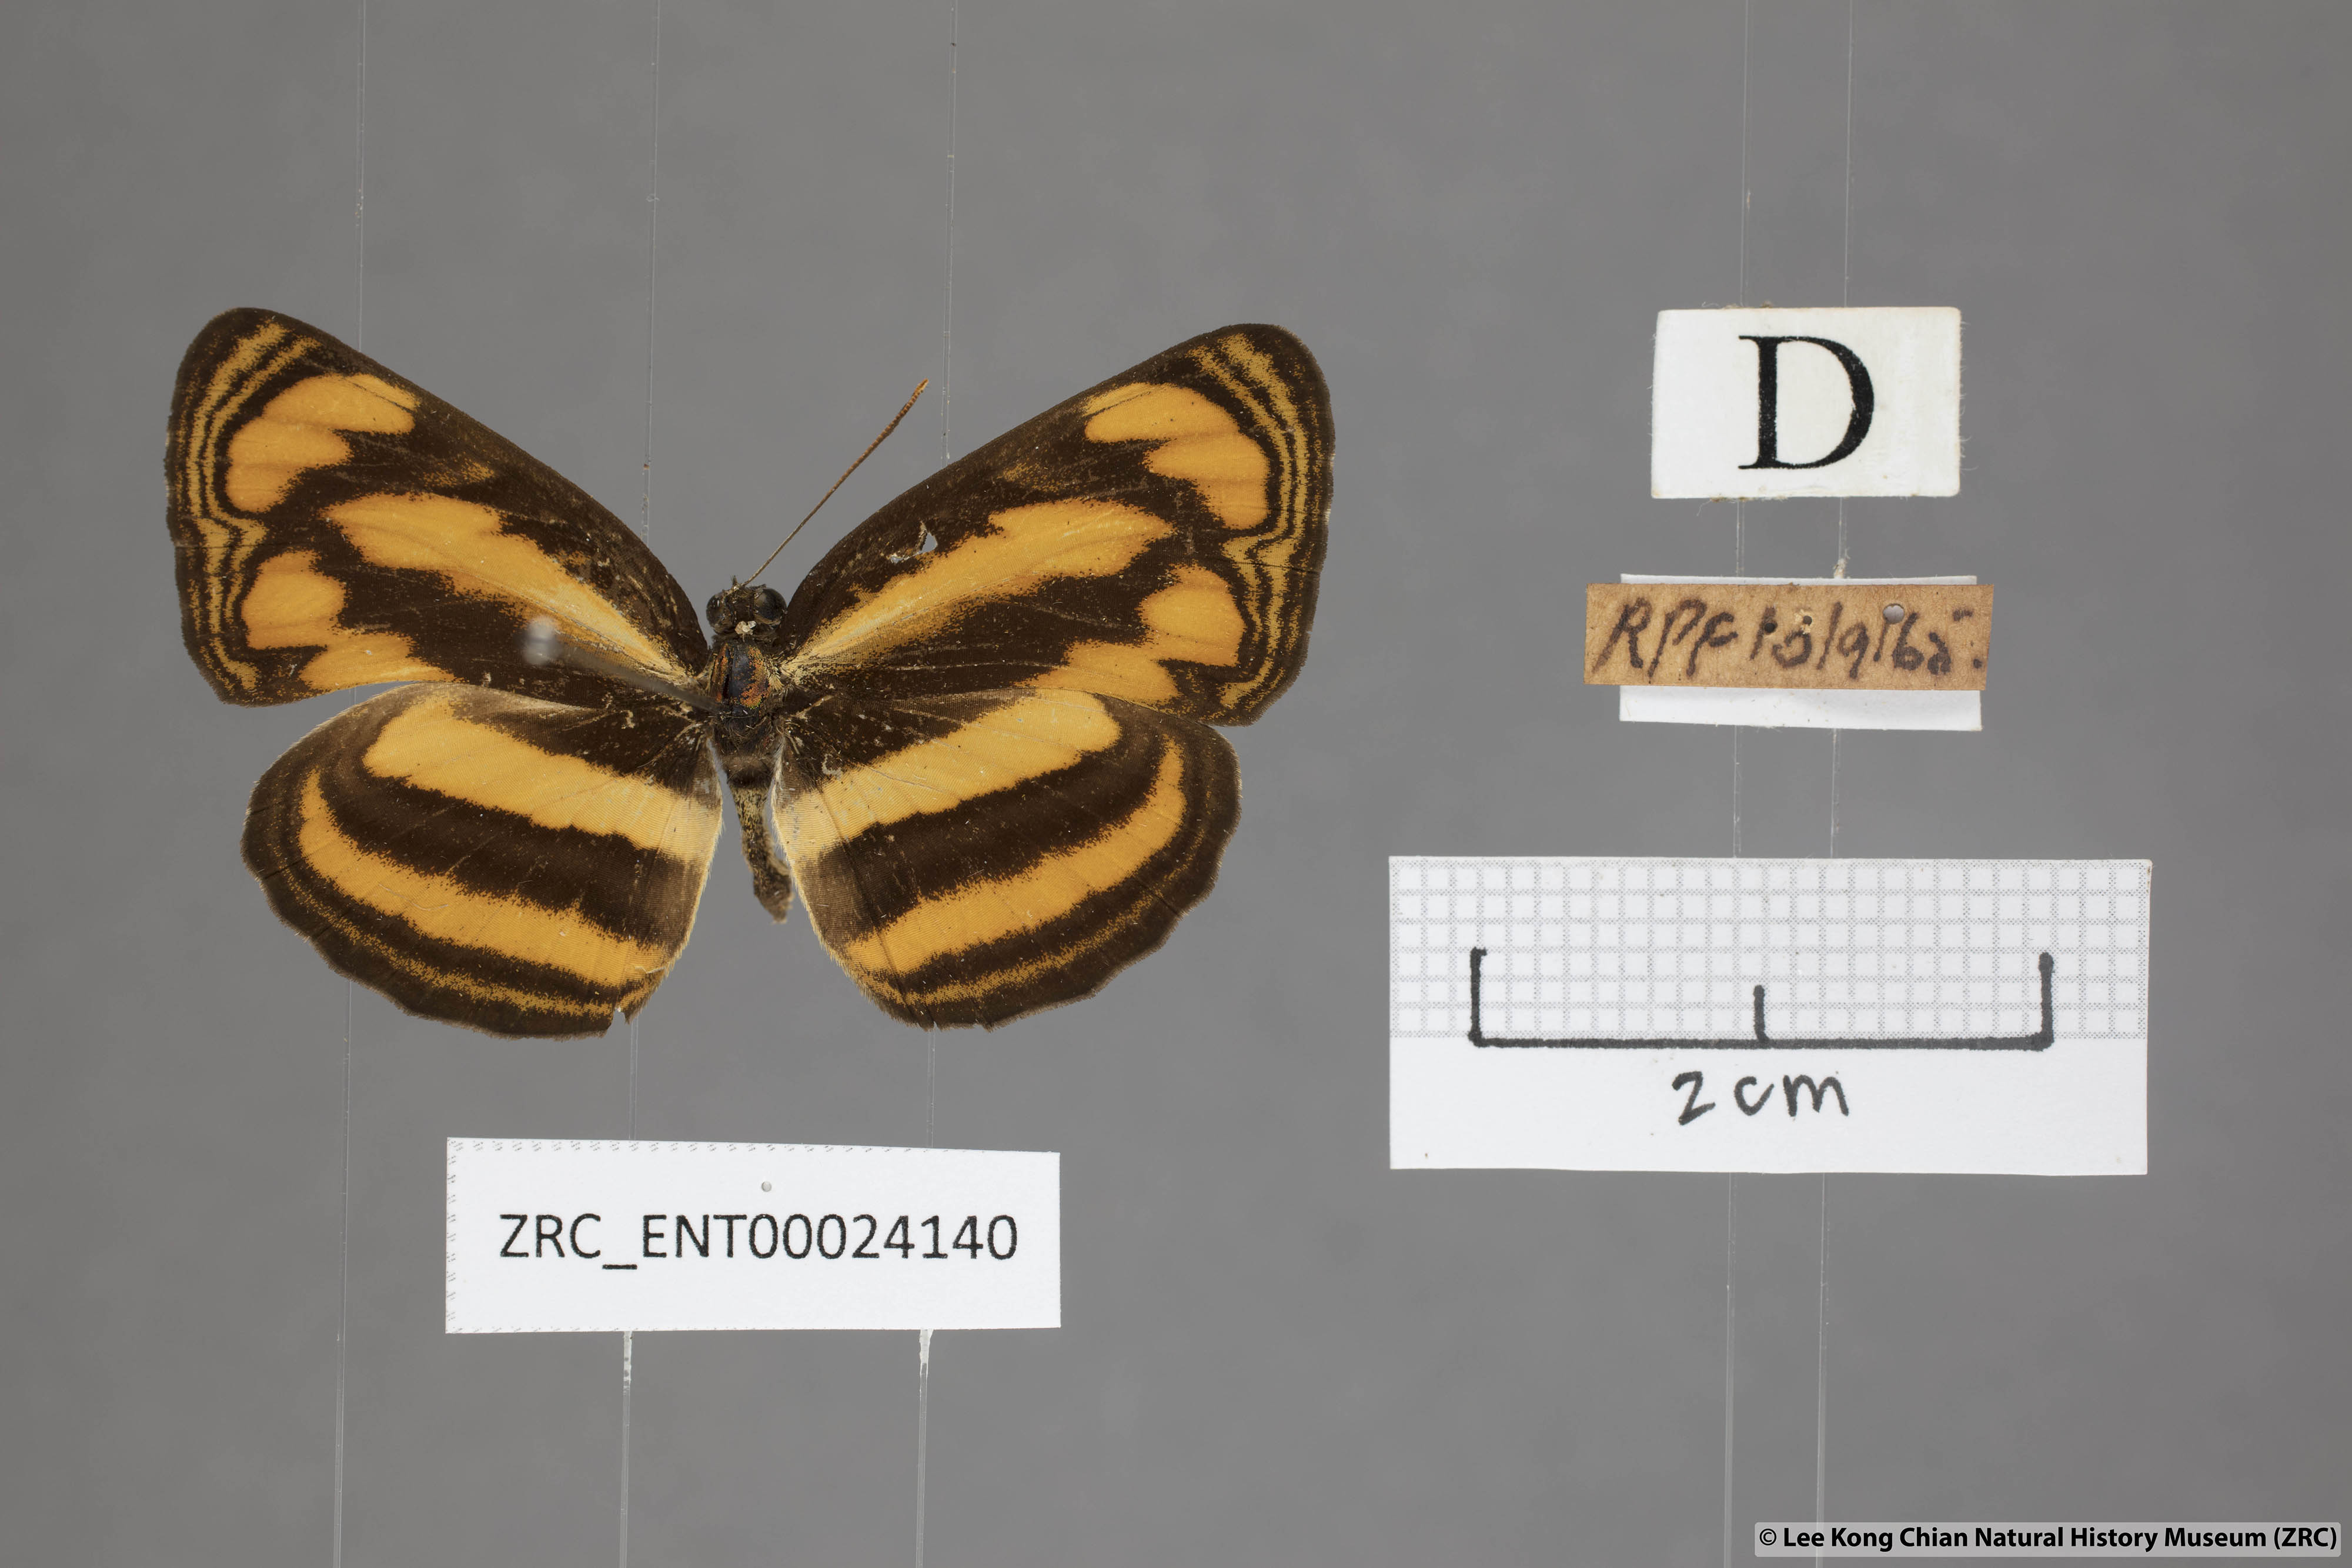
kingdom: Animalia
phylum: Arthropoda
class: Insecta
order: Lepidoptera
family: Nymphalidae
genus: Pantoporia
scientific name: Pantoporia paraka
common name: Perak lascar
